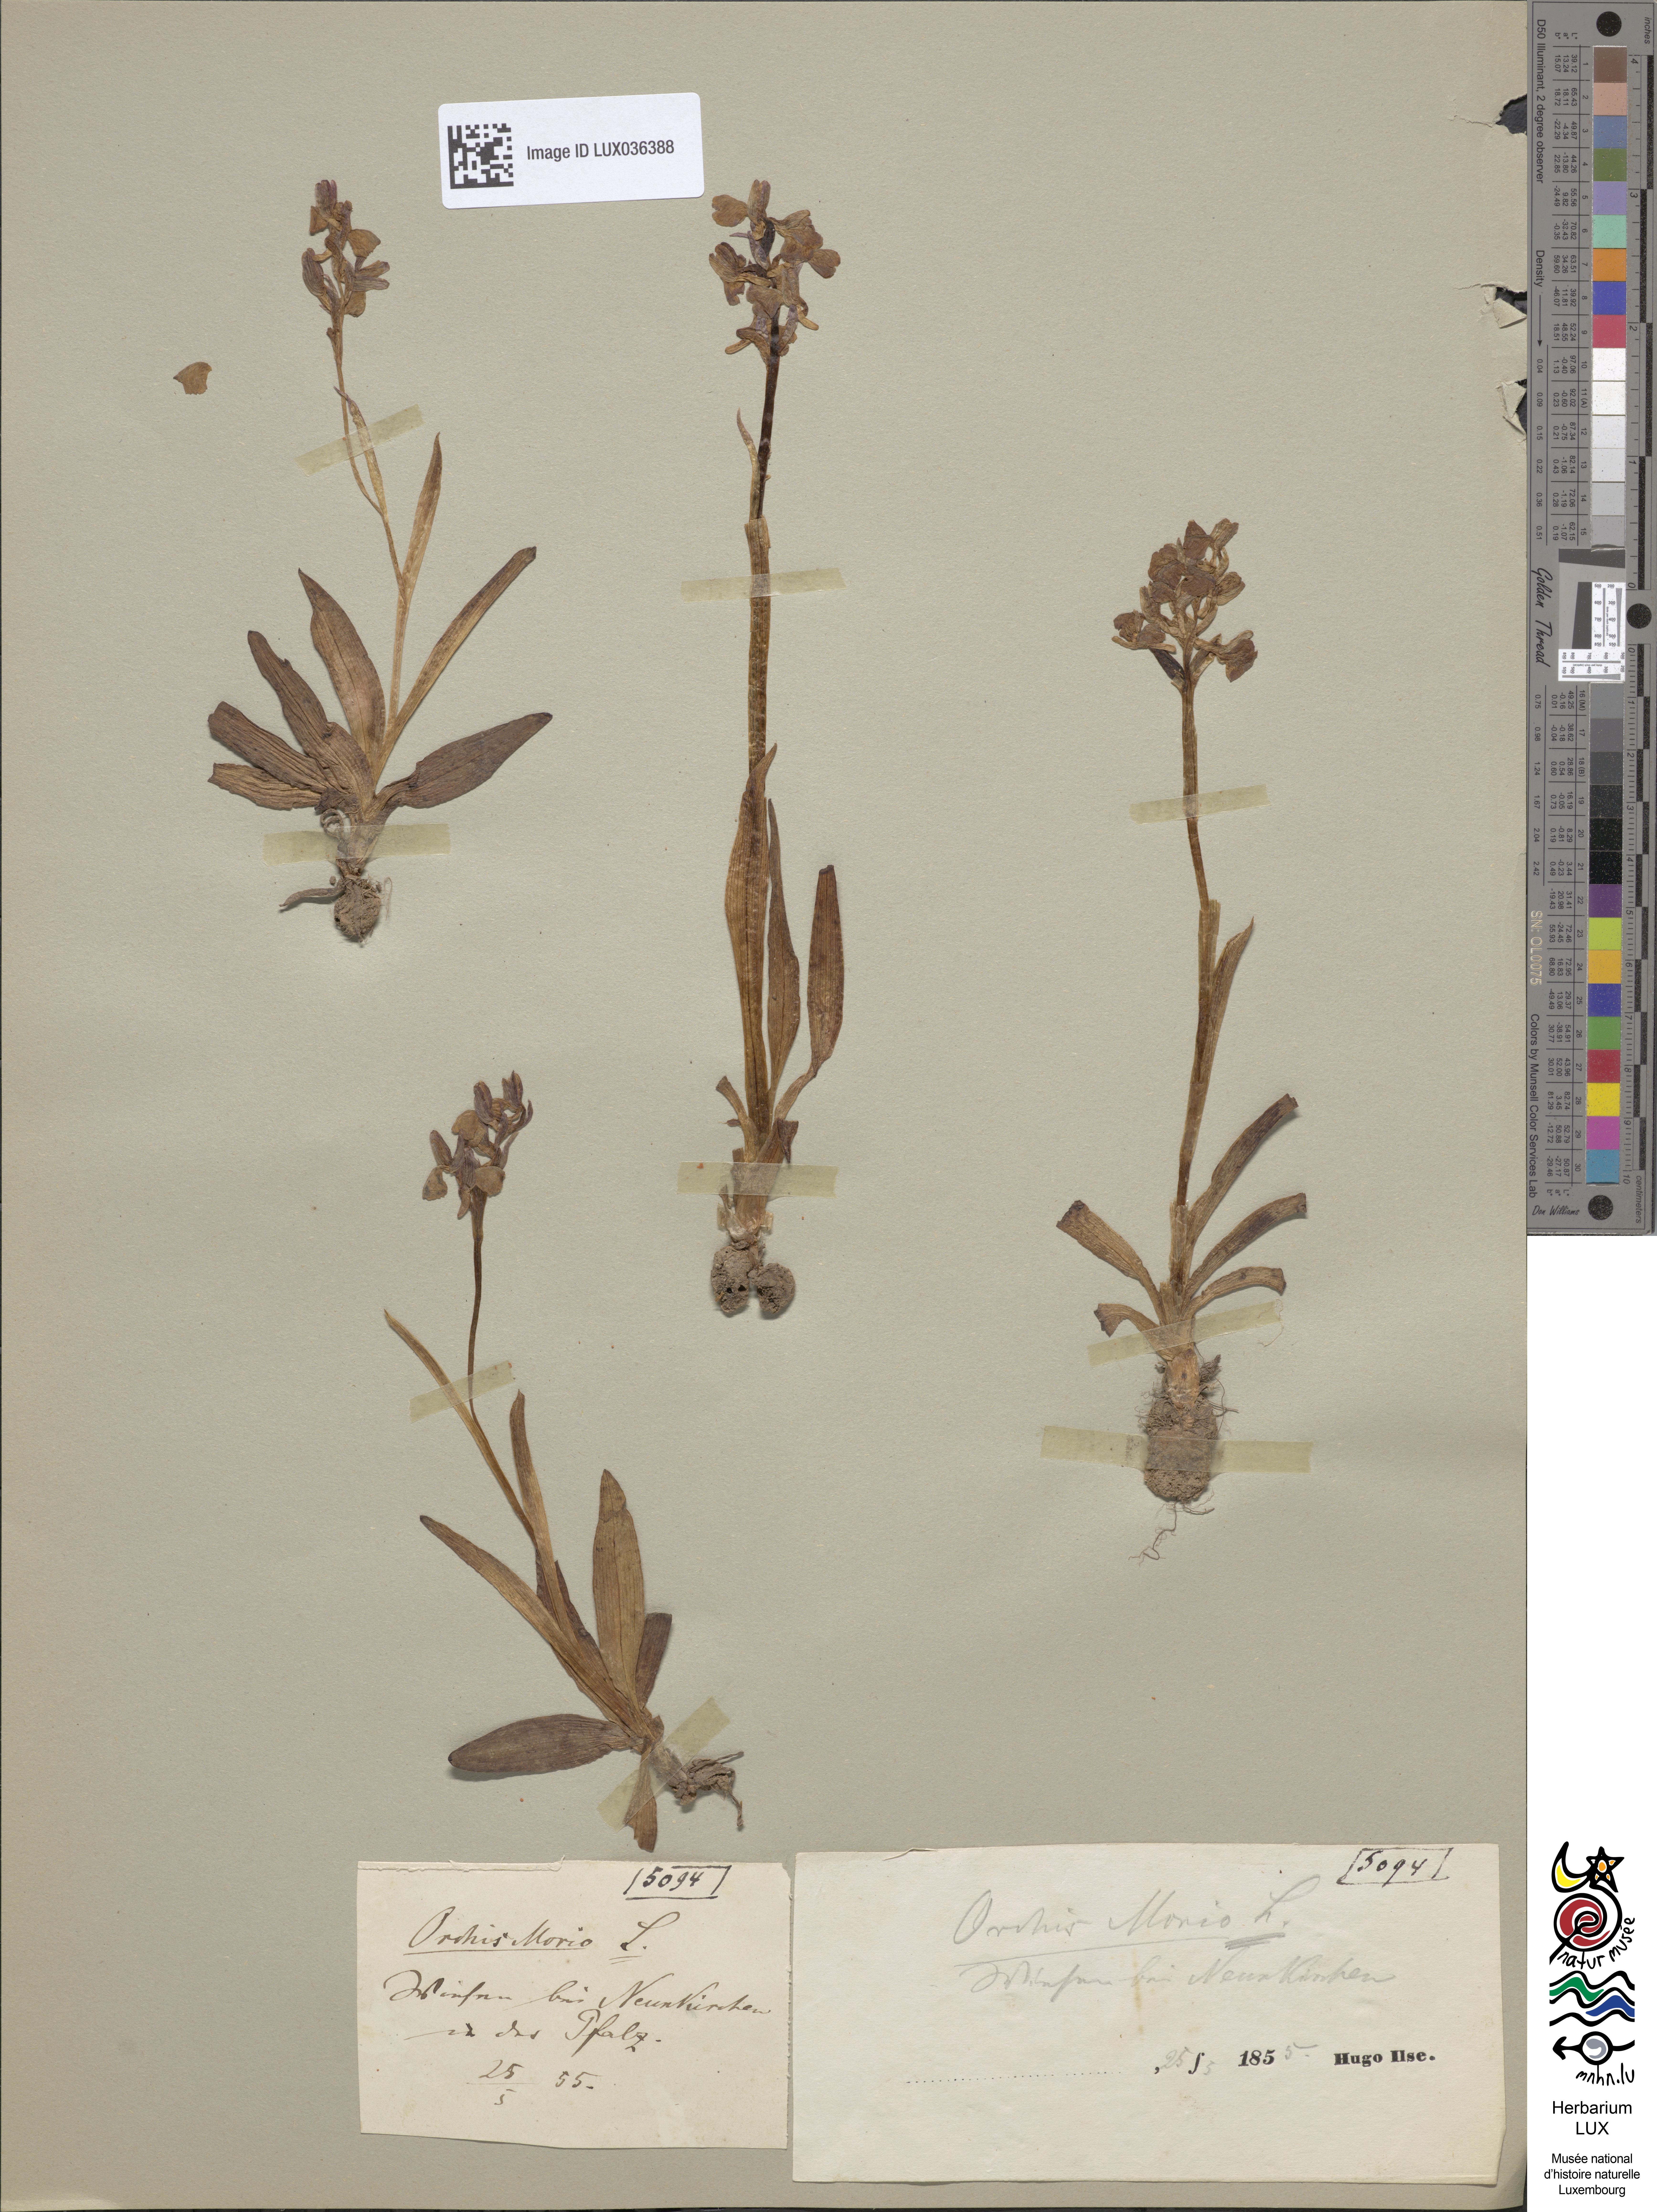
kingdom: Plantae
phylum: Tracheophyta
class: Liliopsida
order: Asparagales
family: Orchidaceae
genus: Anacamptis
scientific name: Anacamptis morio
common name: Green-winged orchid
